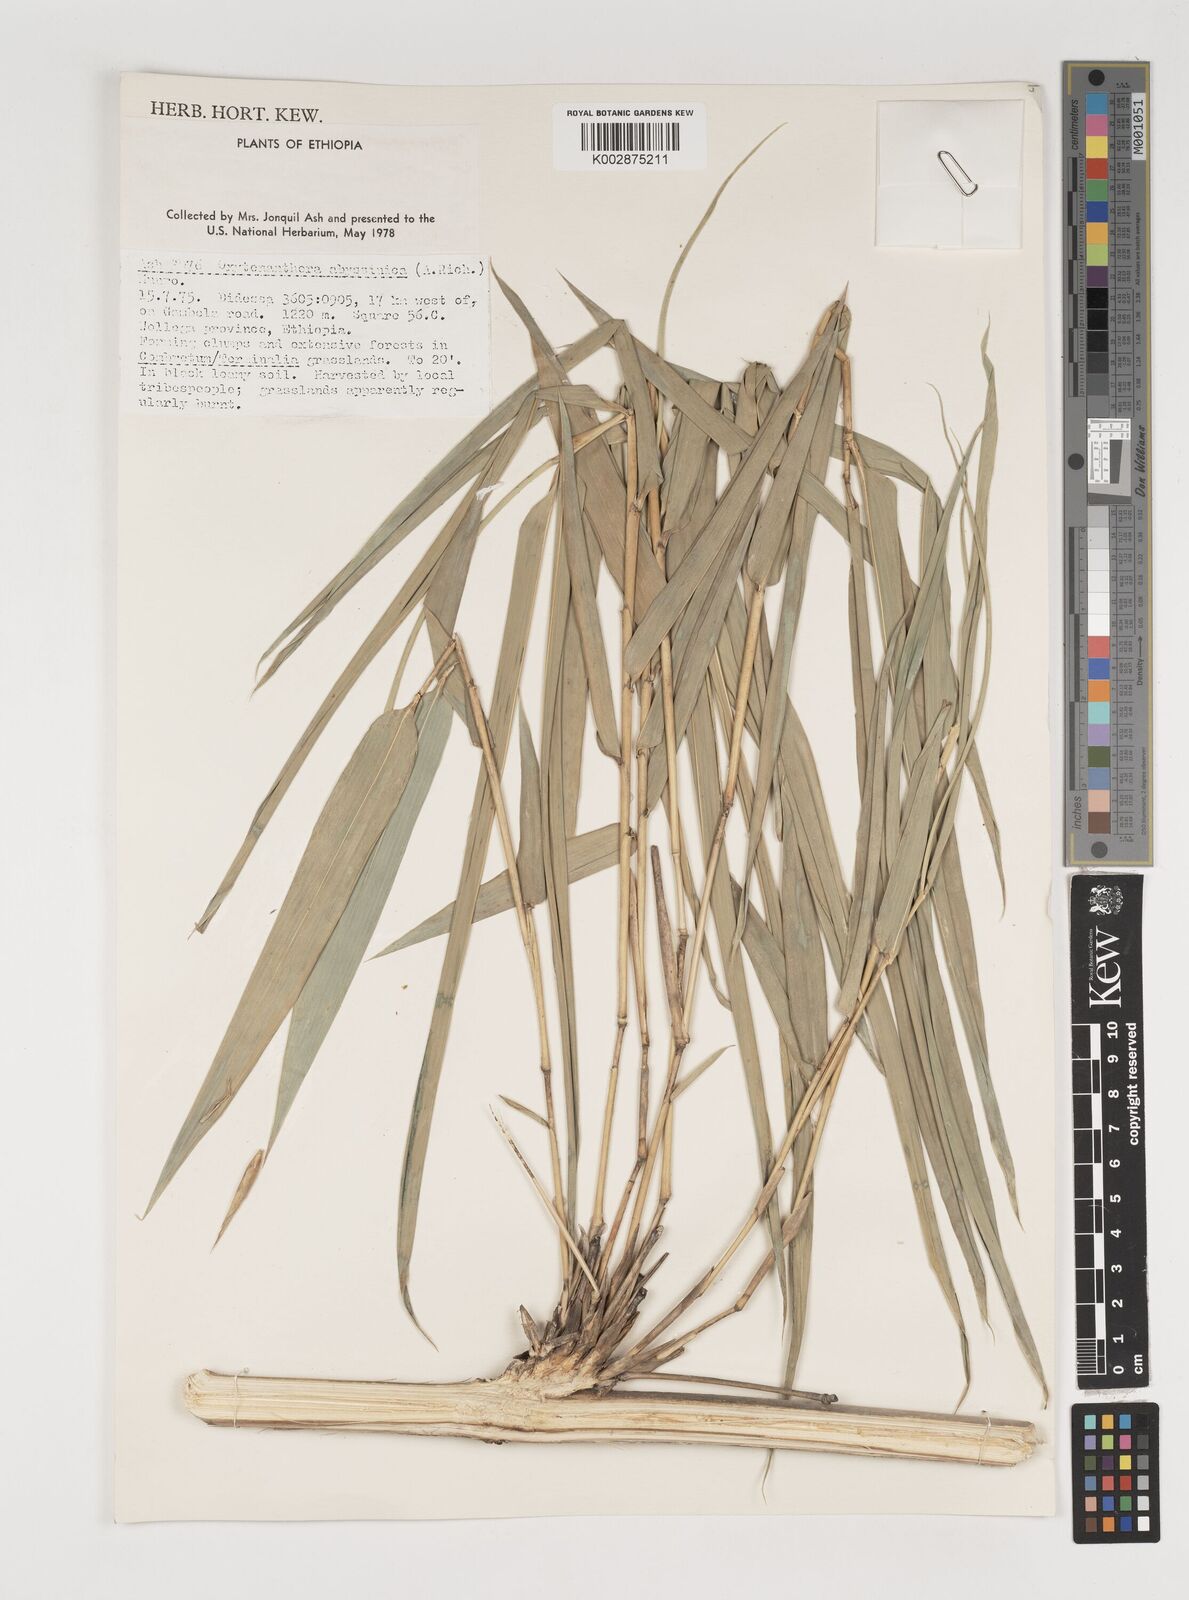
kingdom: Plantae
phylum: Tracheophyta
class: Liliopsida
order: Poales
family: Poaceae
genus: Oxytenanthera
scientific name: Oxytenanthera abyssinica
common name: Wine bamboo
